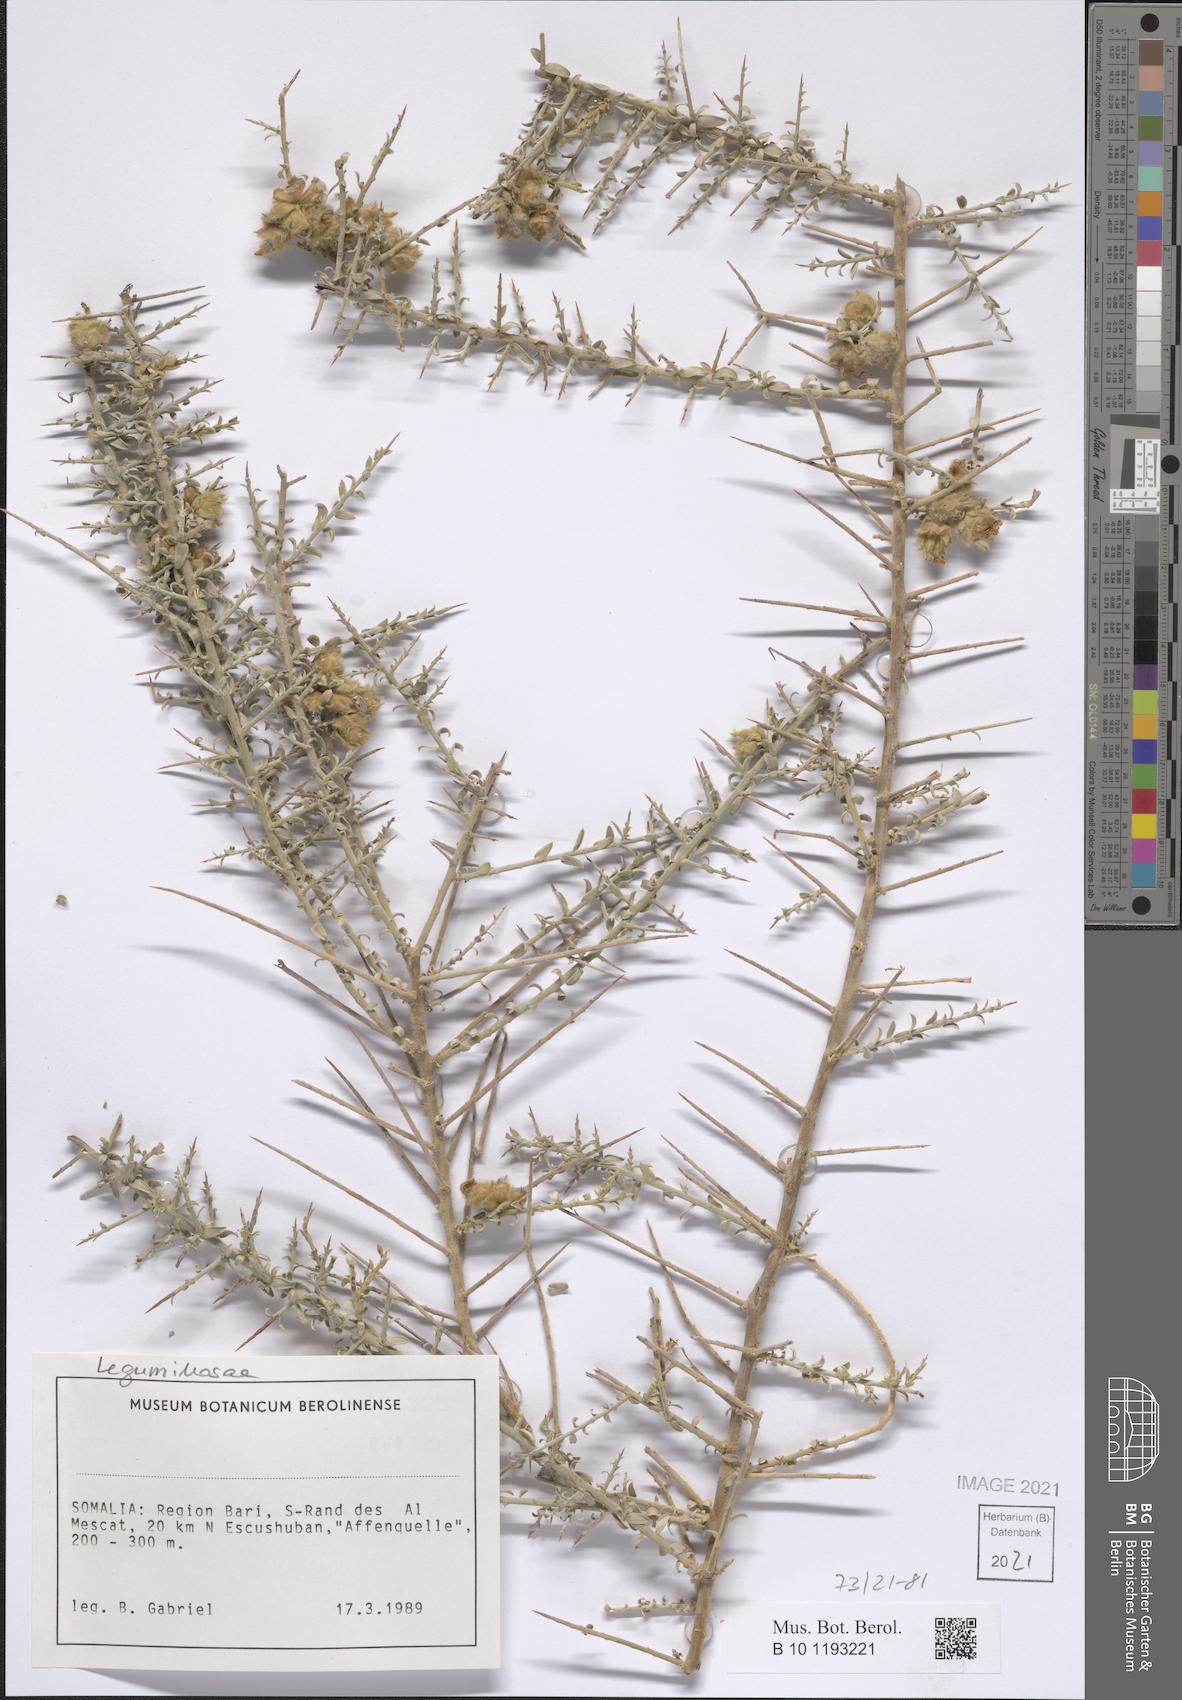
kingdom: Plantae
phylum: Tracheophyta
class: Magnoliopsida
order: Solanales
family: Convolvulaceae
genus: Convolvulus
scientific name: Convolvulus hystrix
